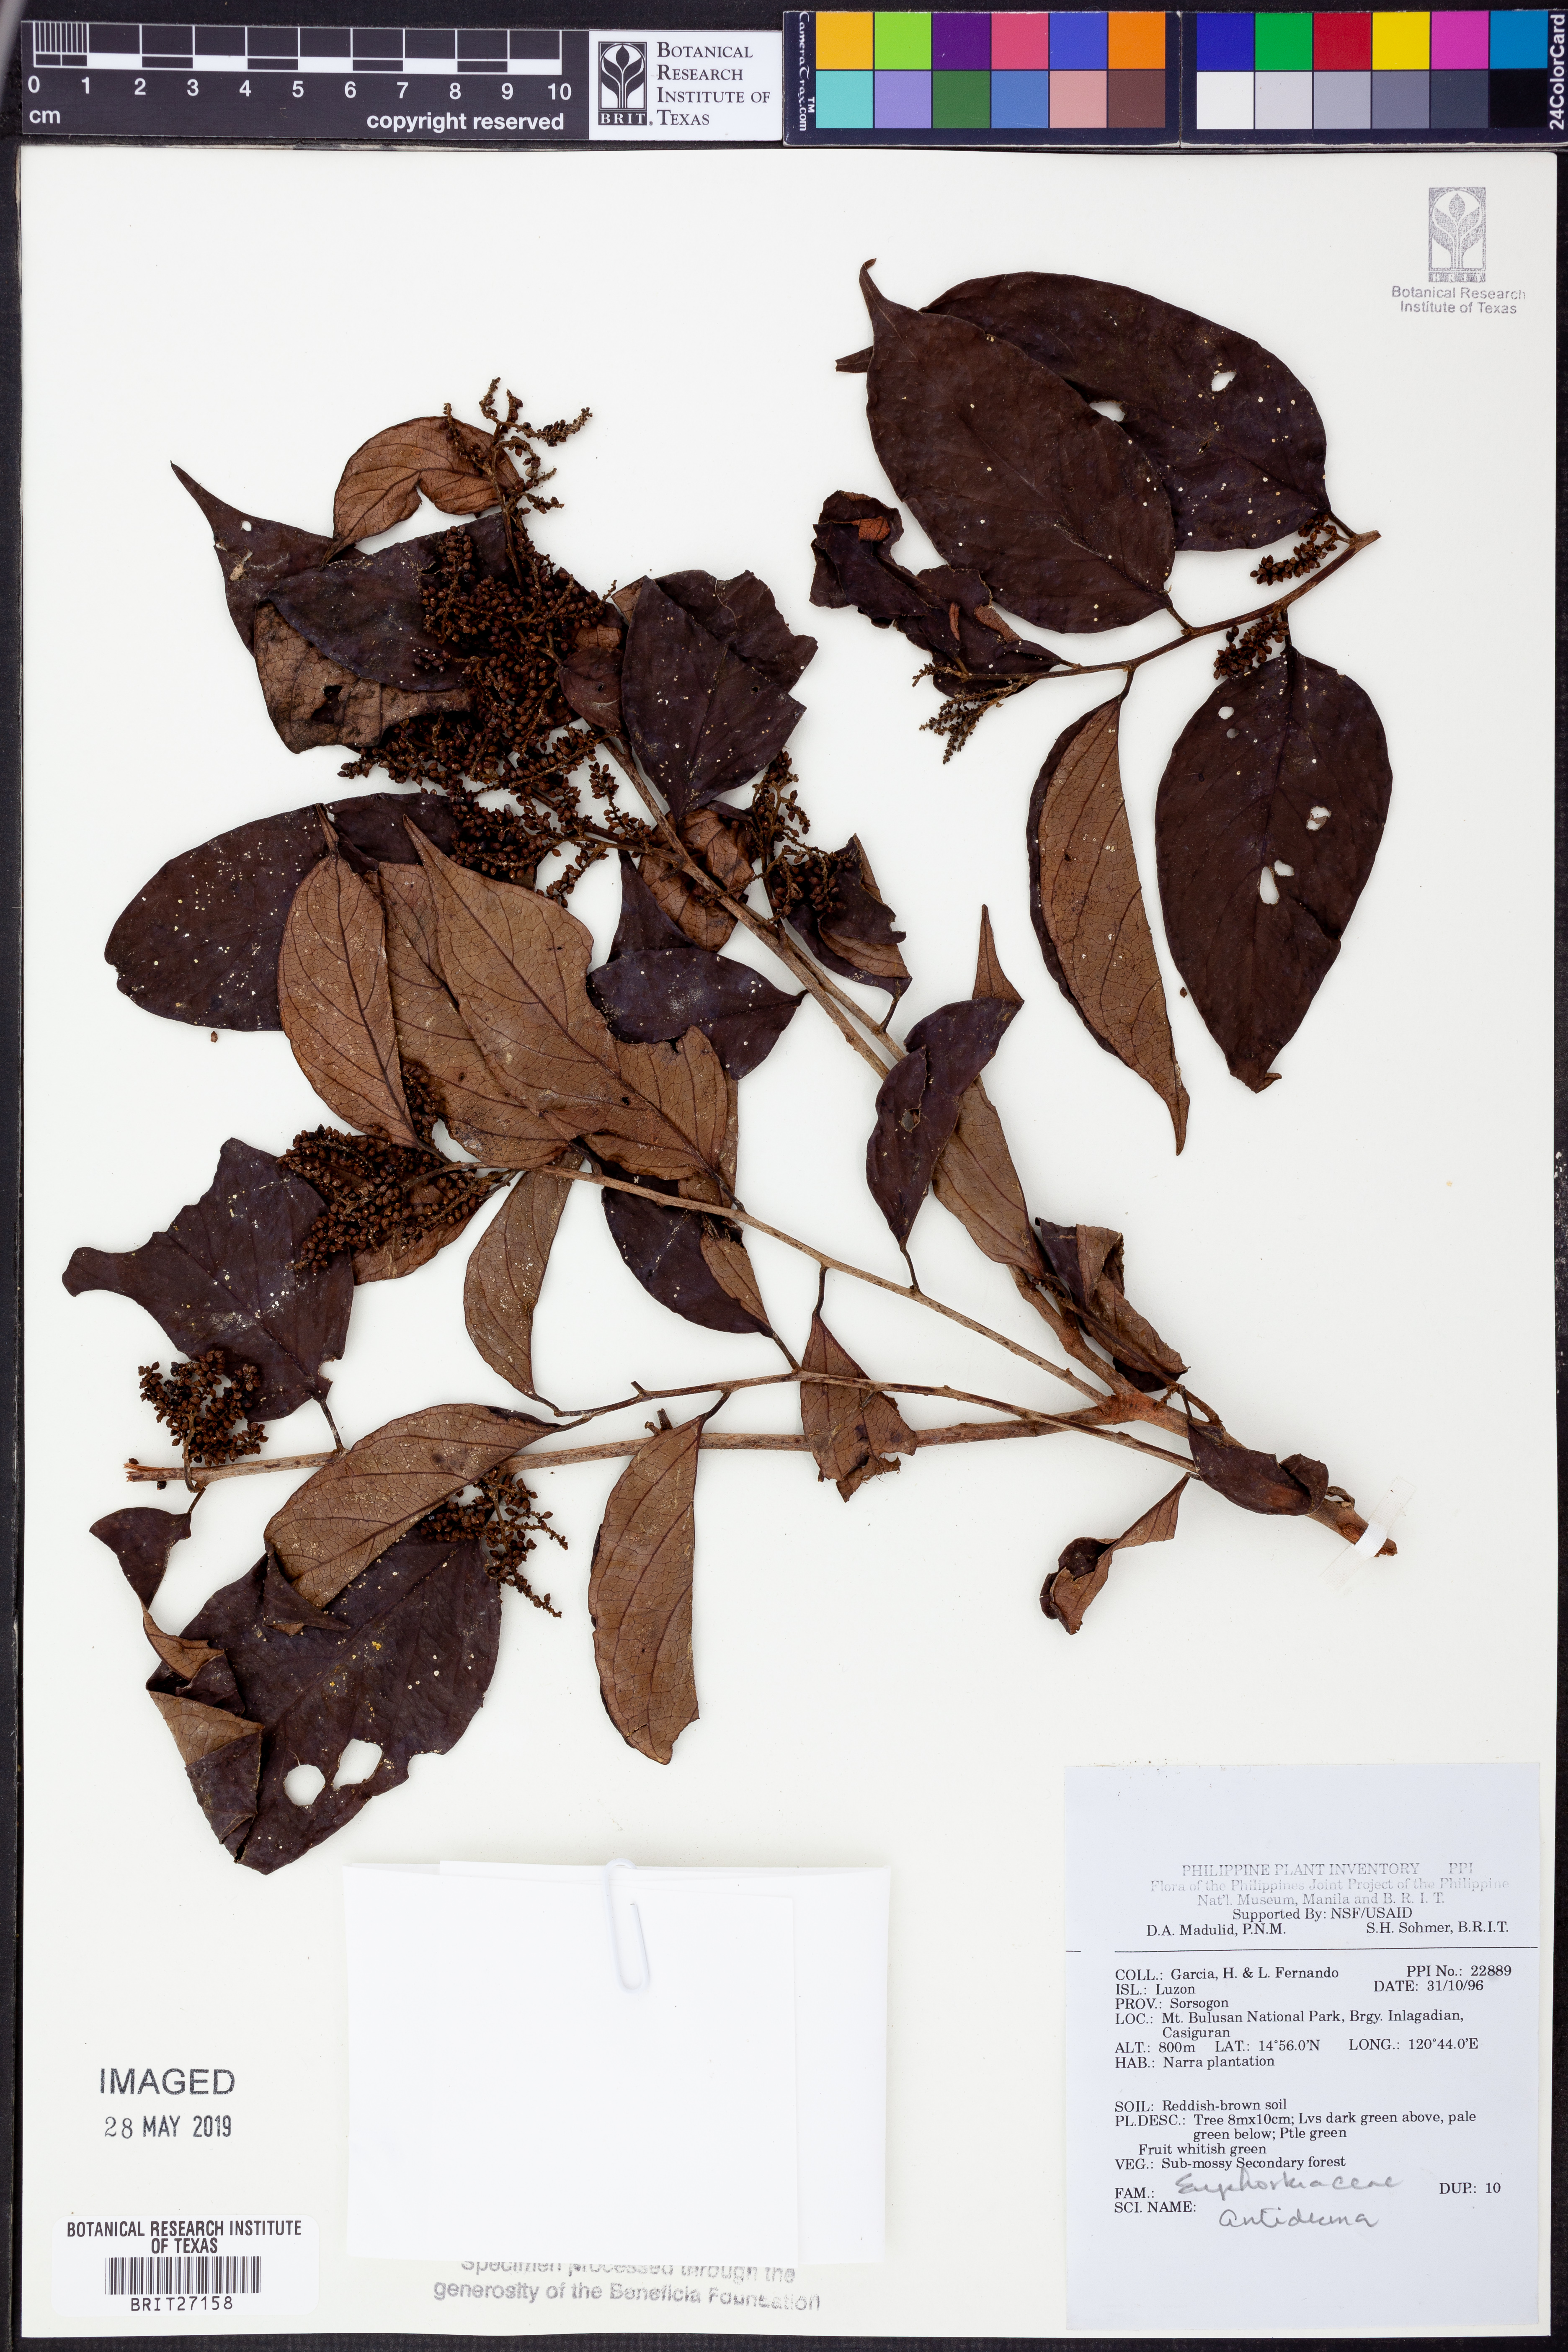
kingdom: Plantae
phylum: Tracheophyta
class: Magnoliopsida
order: Malpighiales
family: Phyllanthaceae
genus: Antidesma
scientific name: Antidesma
